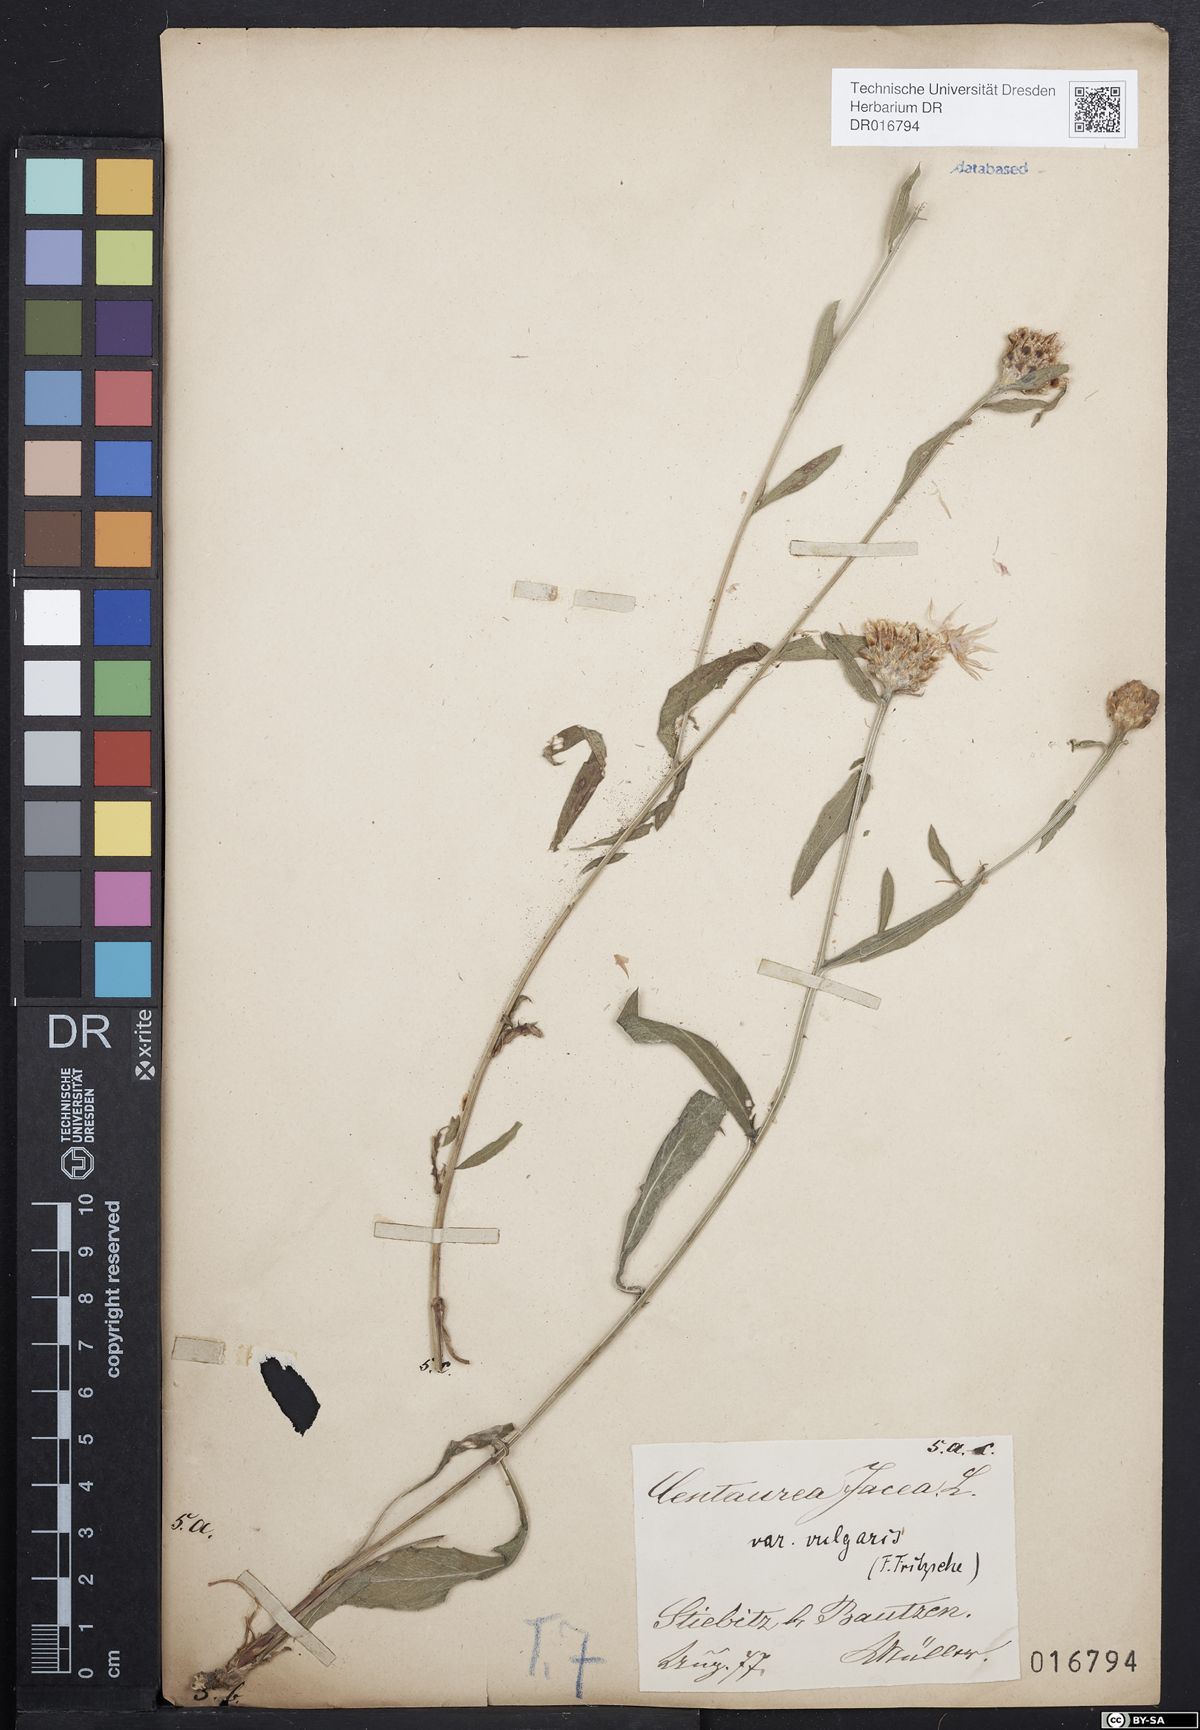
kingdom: Plantae
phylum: Tracheophyta
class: Magnoliopsida
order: Asterales
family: Asteraceae
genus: Centaurea
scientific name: Centaurea jacea
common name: Brown knapweed
